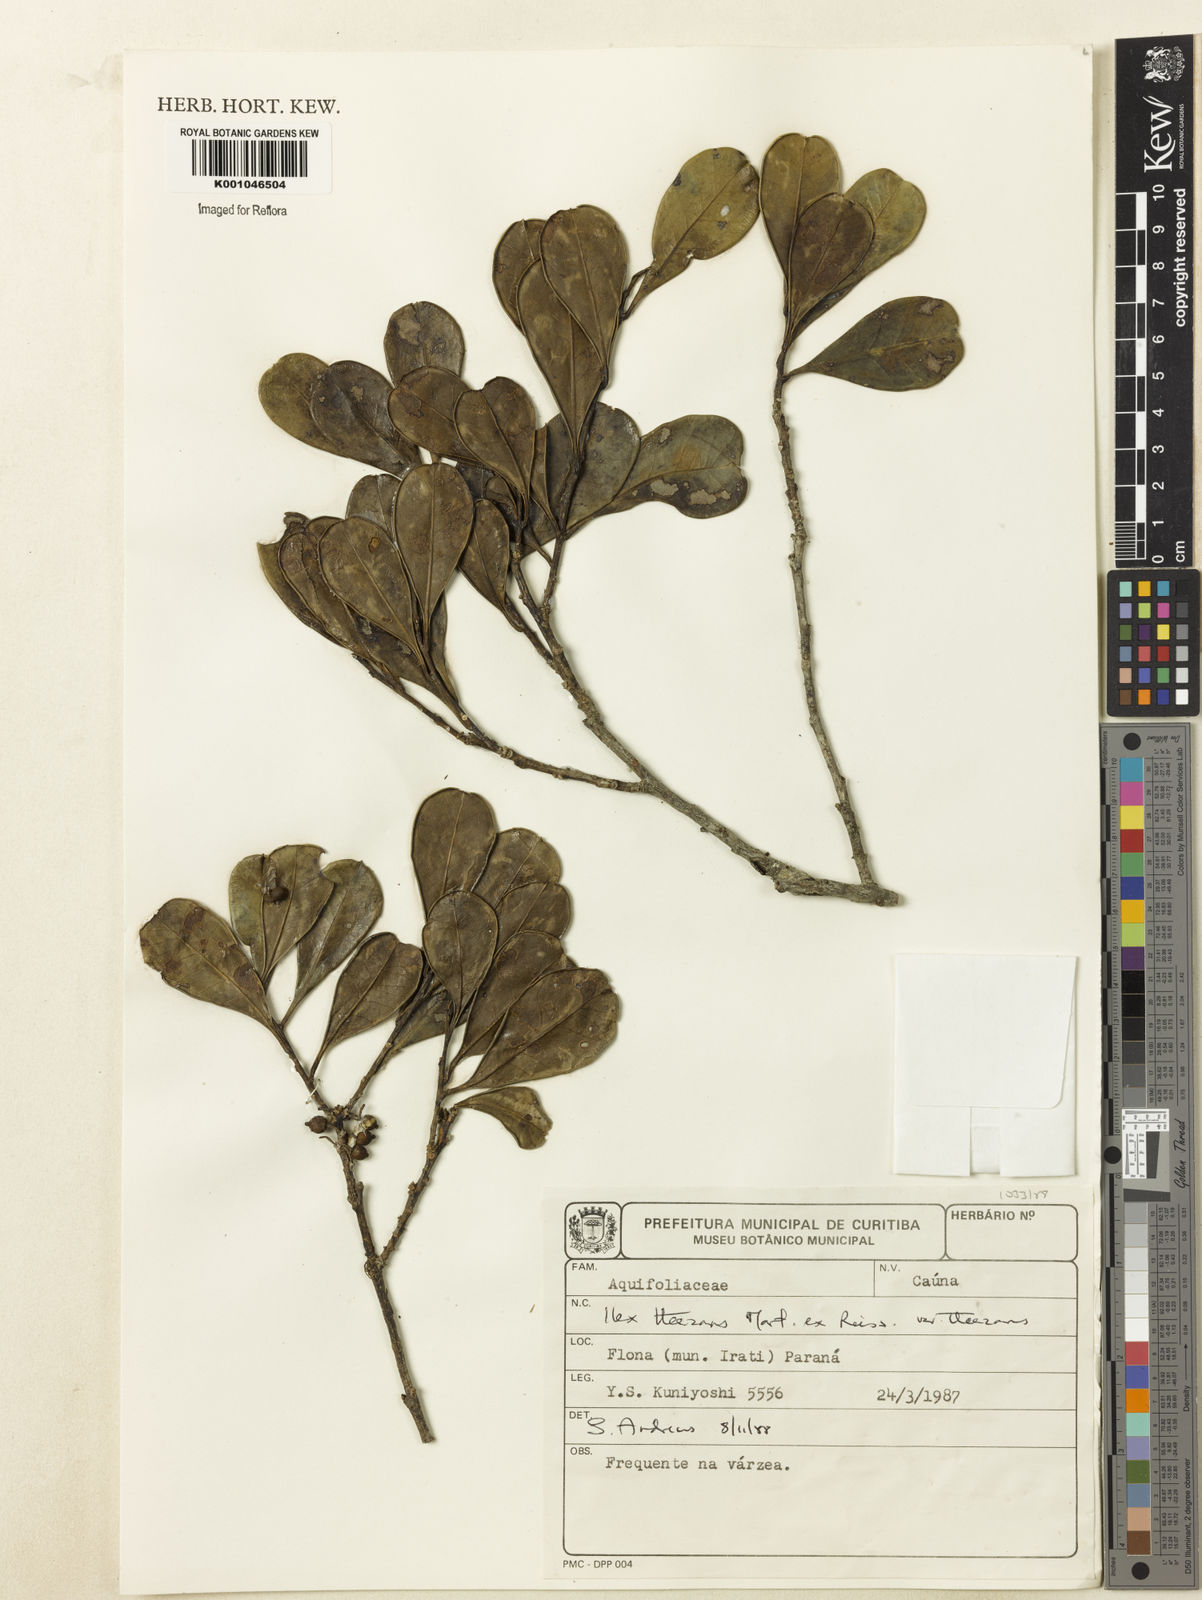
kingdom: Plantae
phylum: Tracheophyta
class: Magnoliopsida
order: Aquifoliales
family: Aquifoliaceae
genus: Ilex
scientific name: Ilex paraguariensis
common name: Paraguay tea
